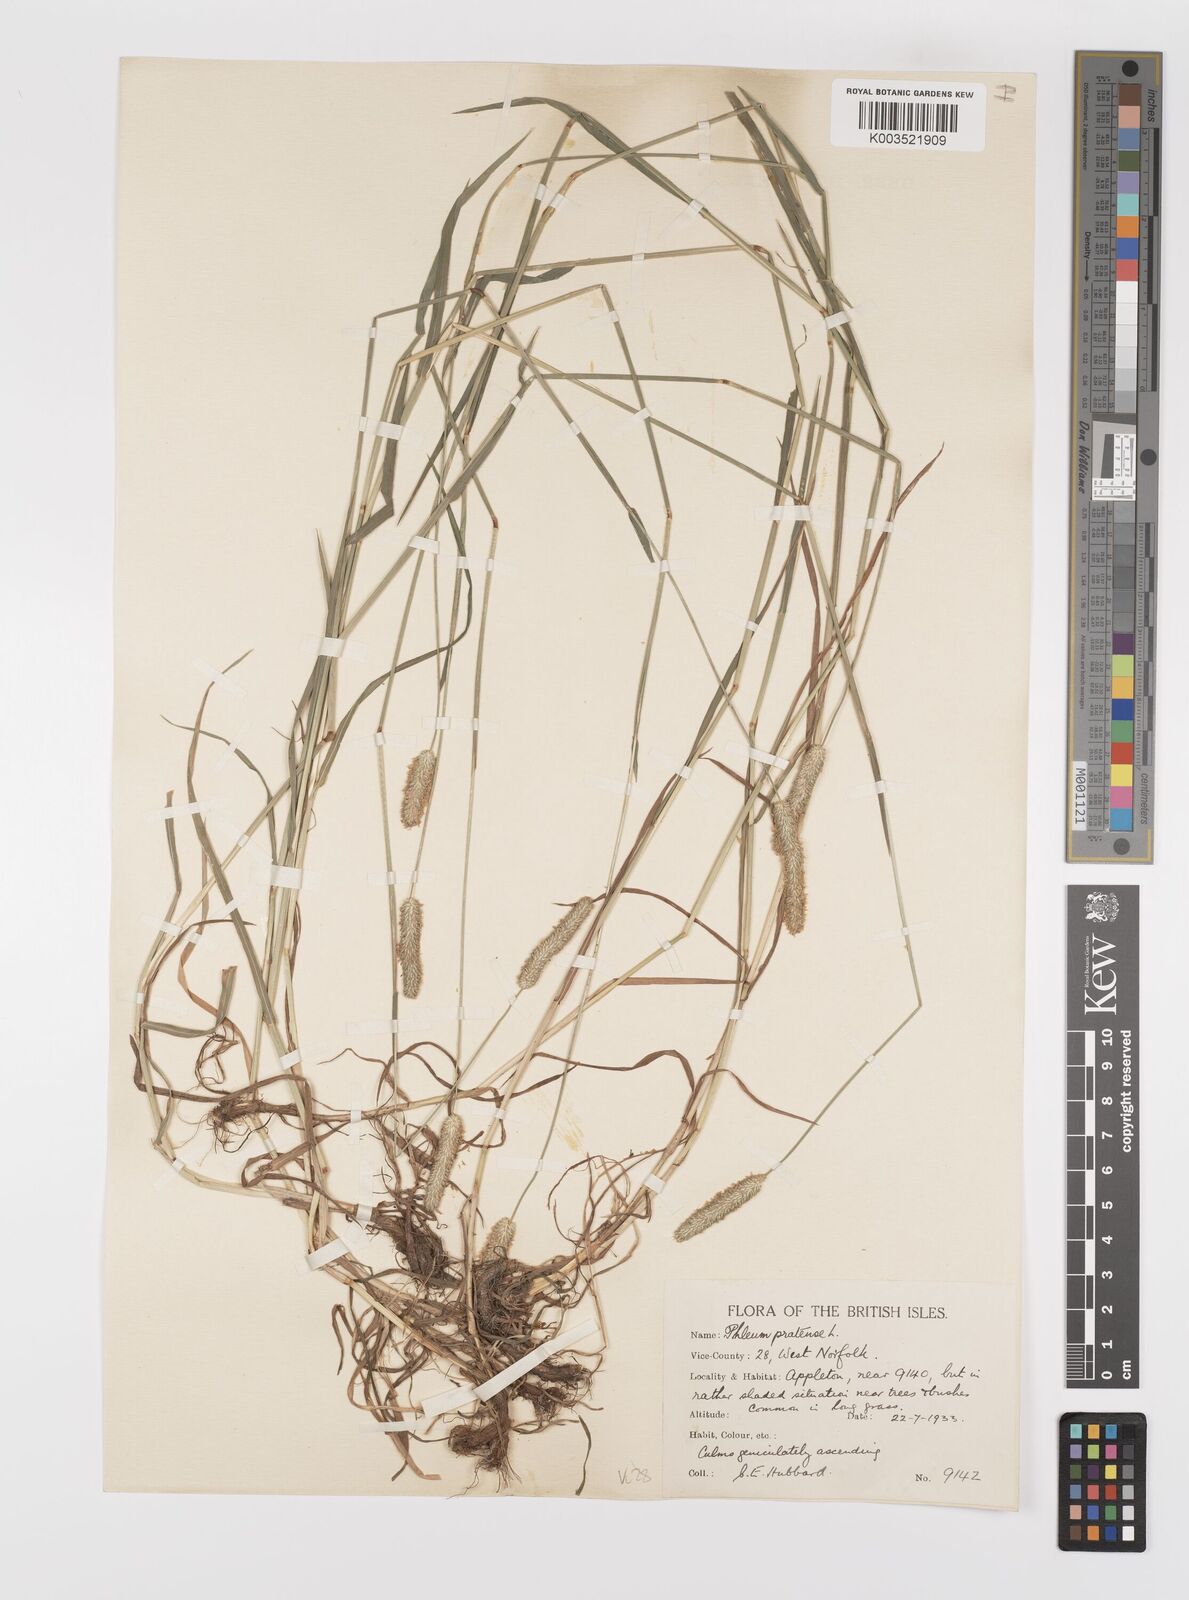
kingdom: Plantae
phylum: Tracheophyta
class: Liliopsida
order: Poales
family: Poaceae
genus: Phleum
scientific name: Phleum bertolonii
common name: Smaller cat's-tail
